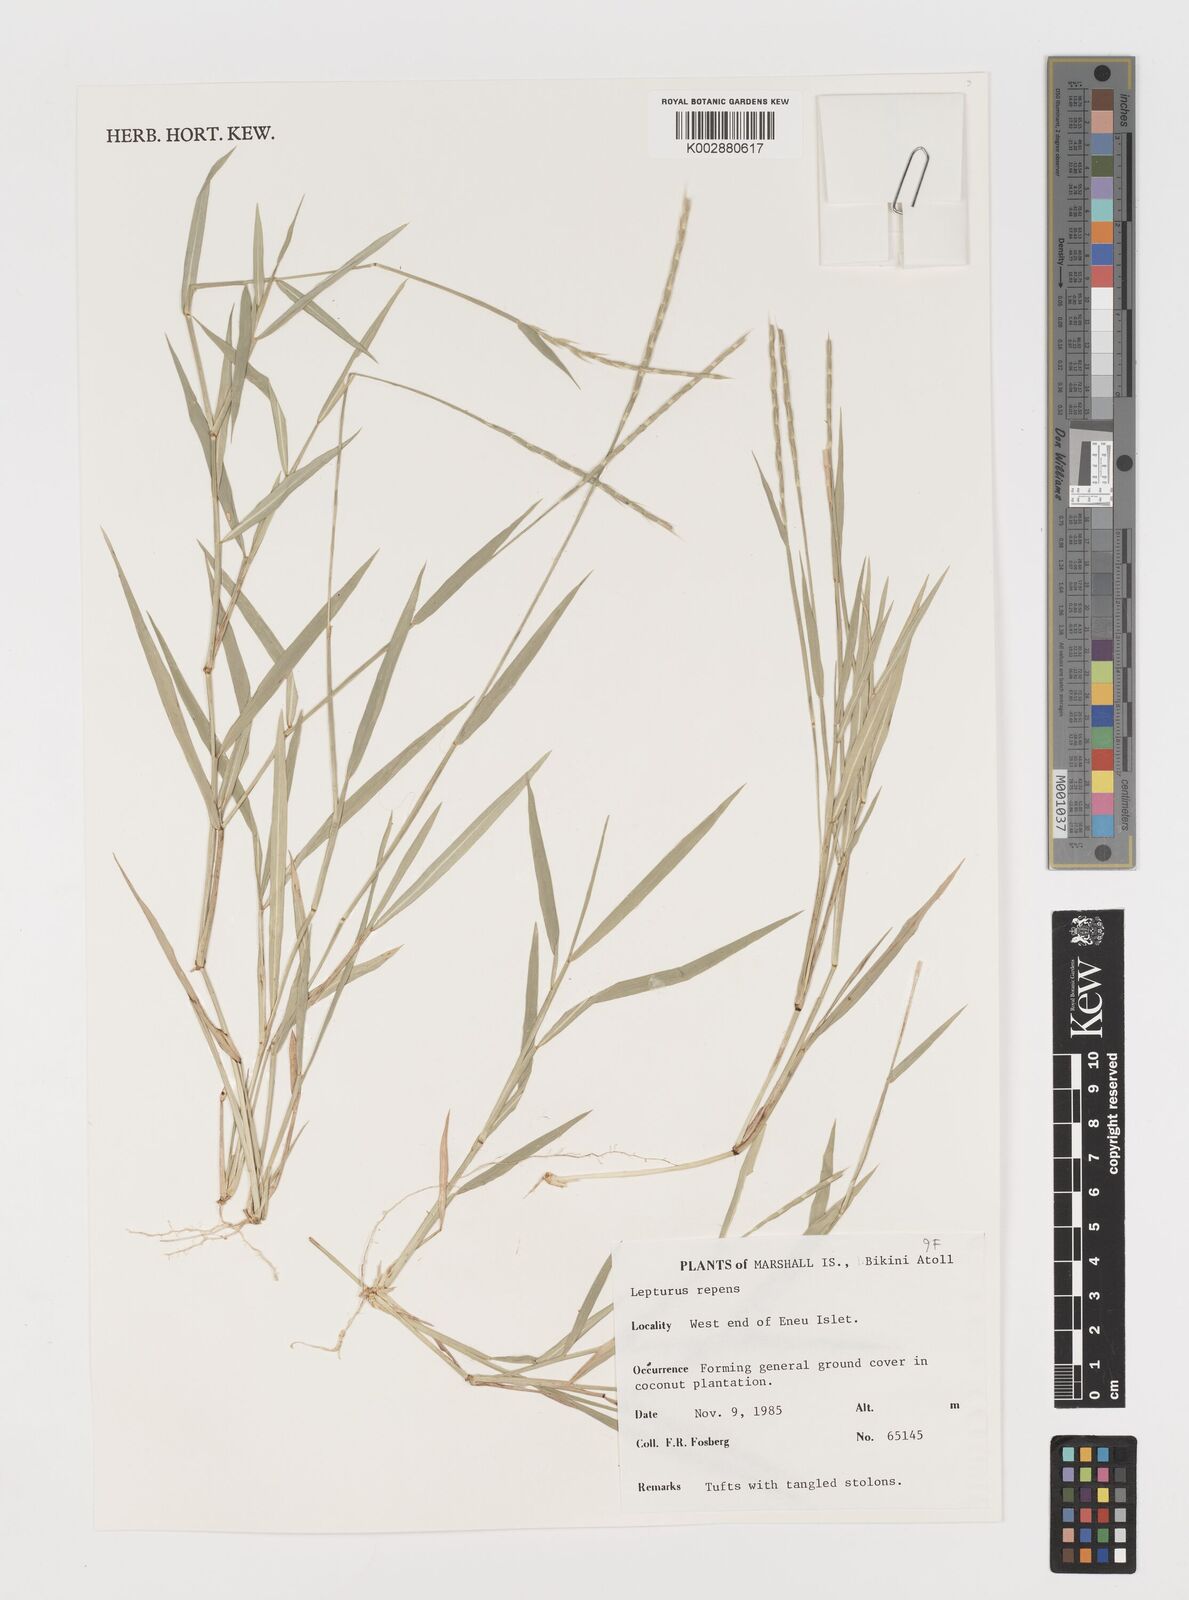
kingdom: Plantae
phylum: Tracheophyta
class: Liliopsida
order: Poales
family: Poaceae
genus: Lepturus
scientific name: Lepturus repens
